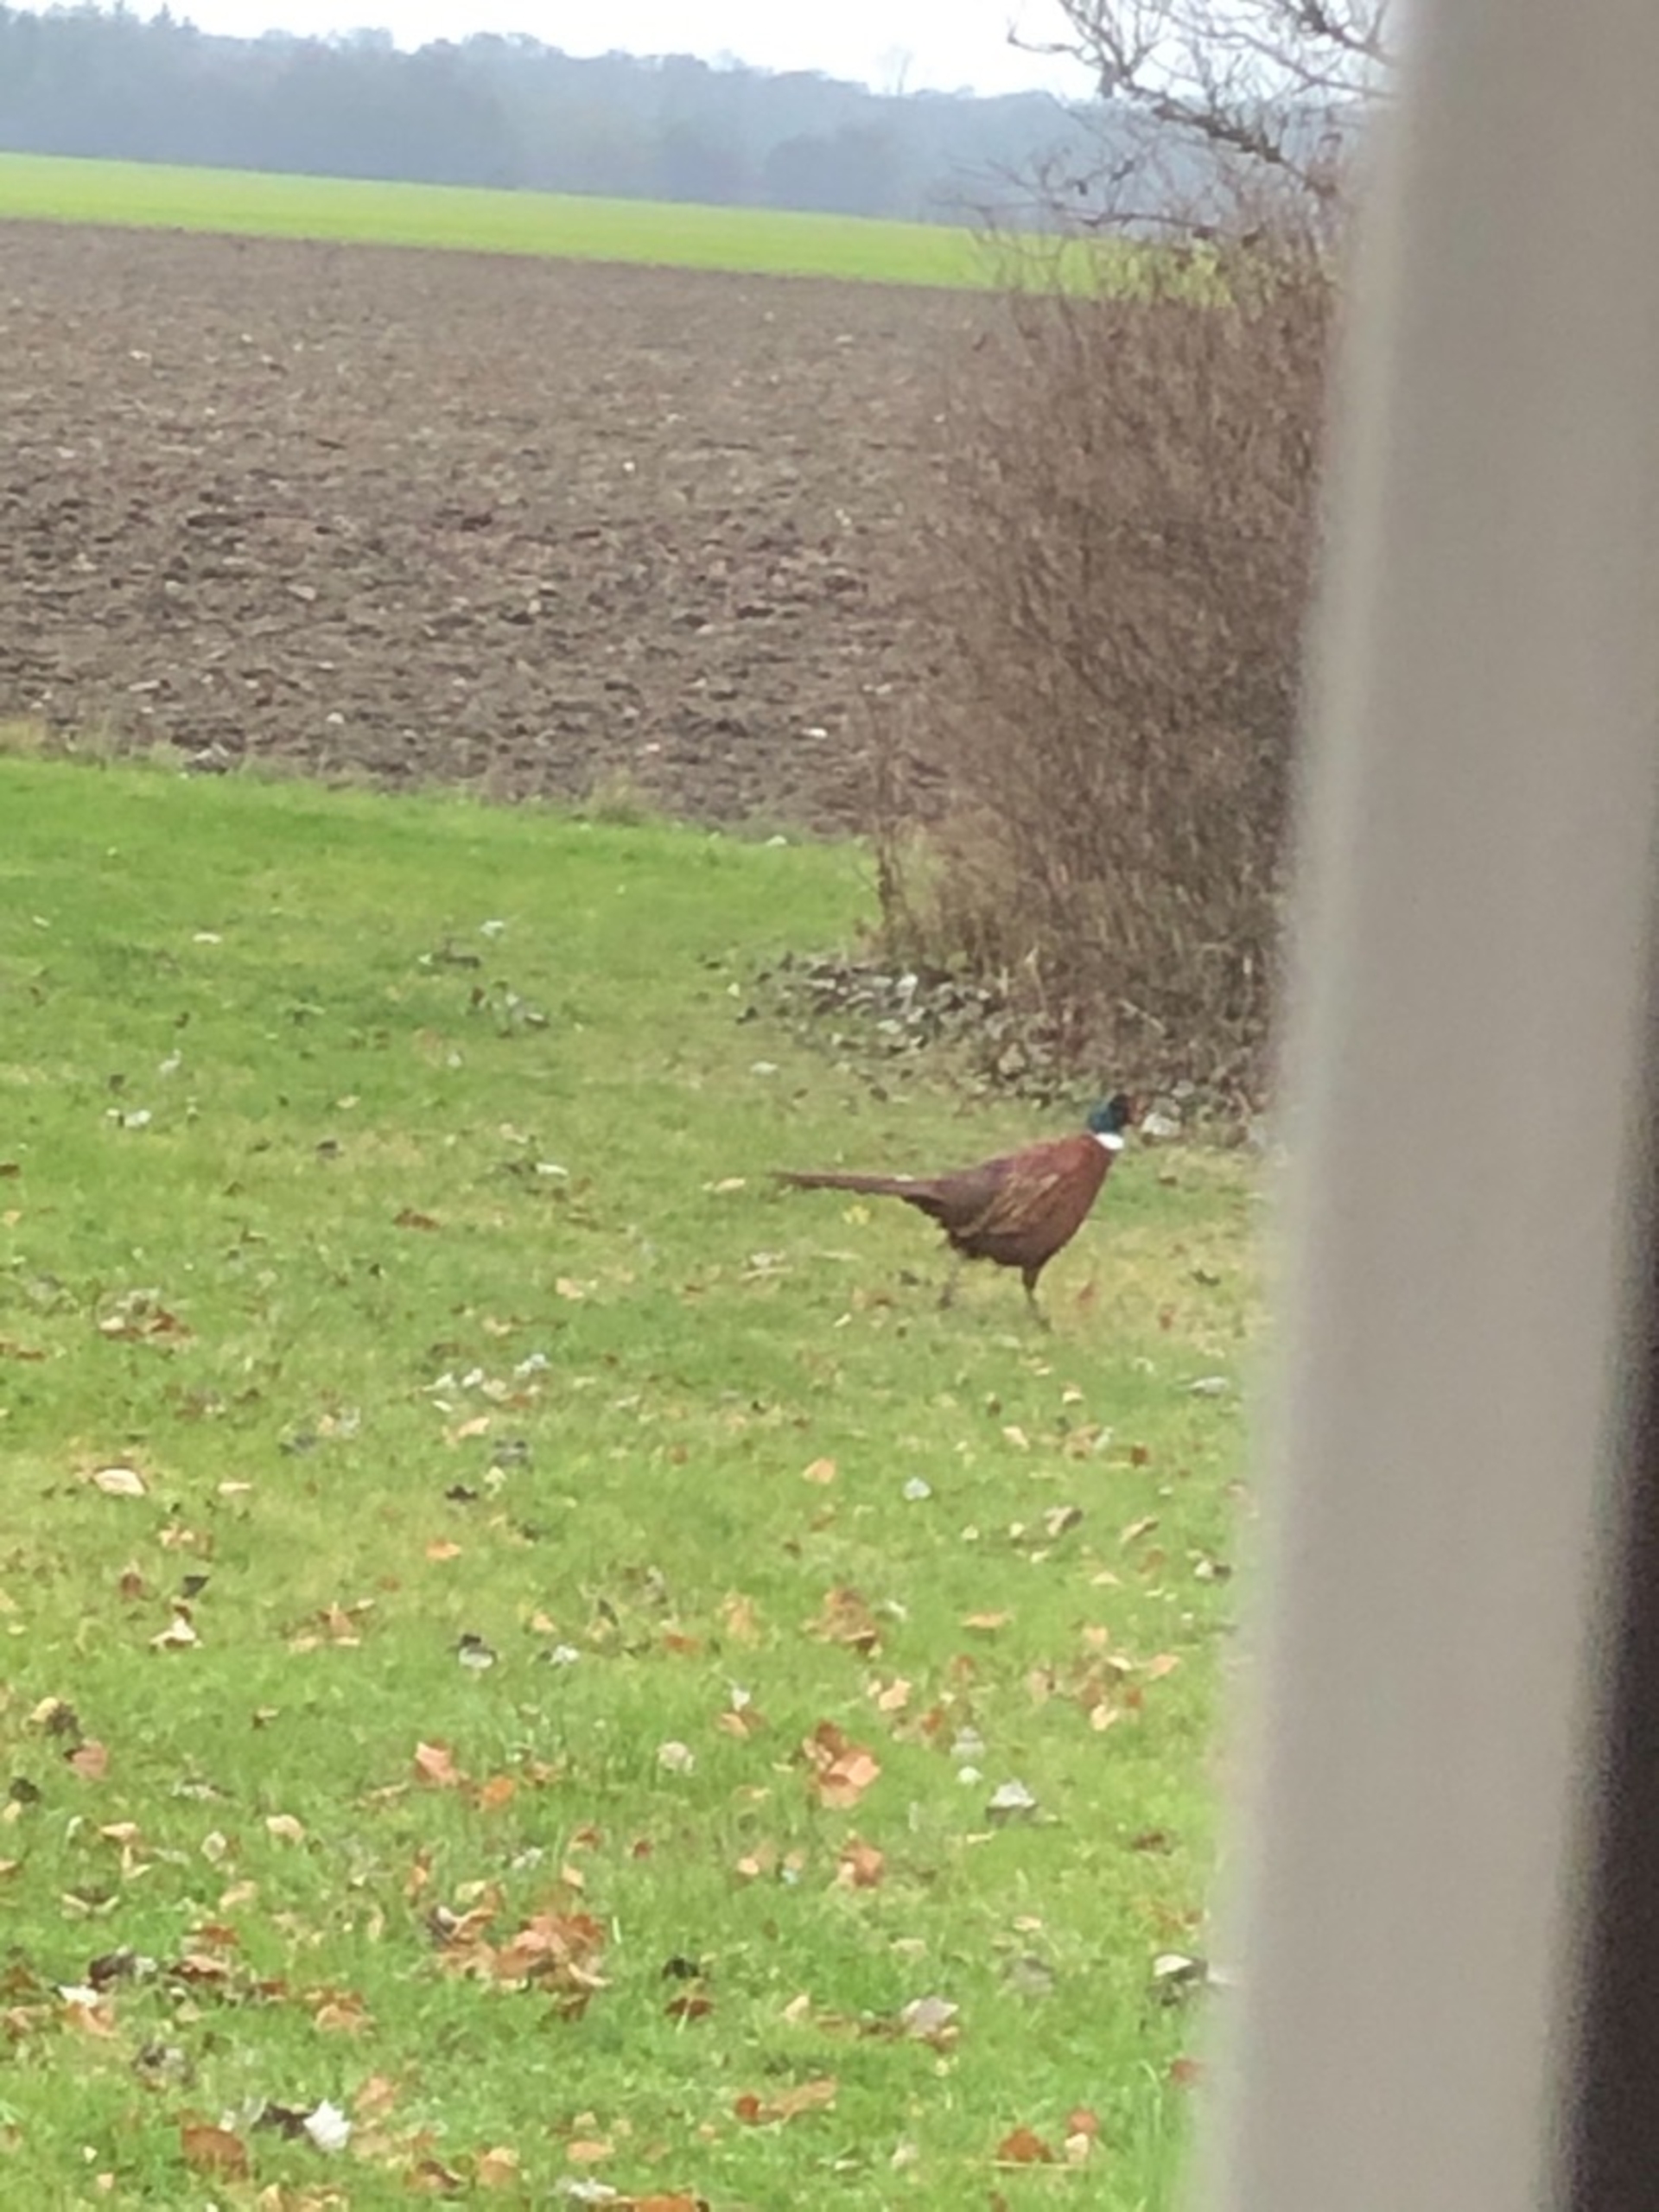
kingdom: Animalia
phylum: Chordata
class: Aves
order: Galliformes
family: Phasianidae
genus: Phasianus
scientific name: Phasianus colchicus
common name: Fasan
